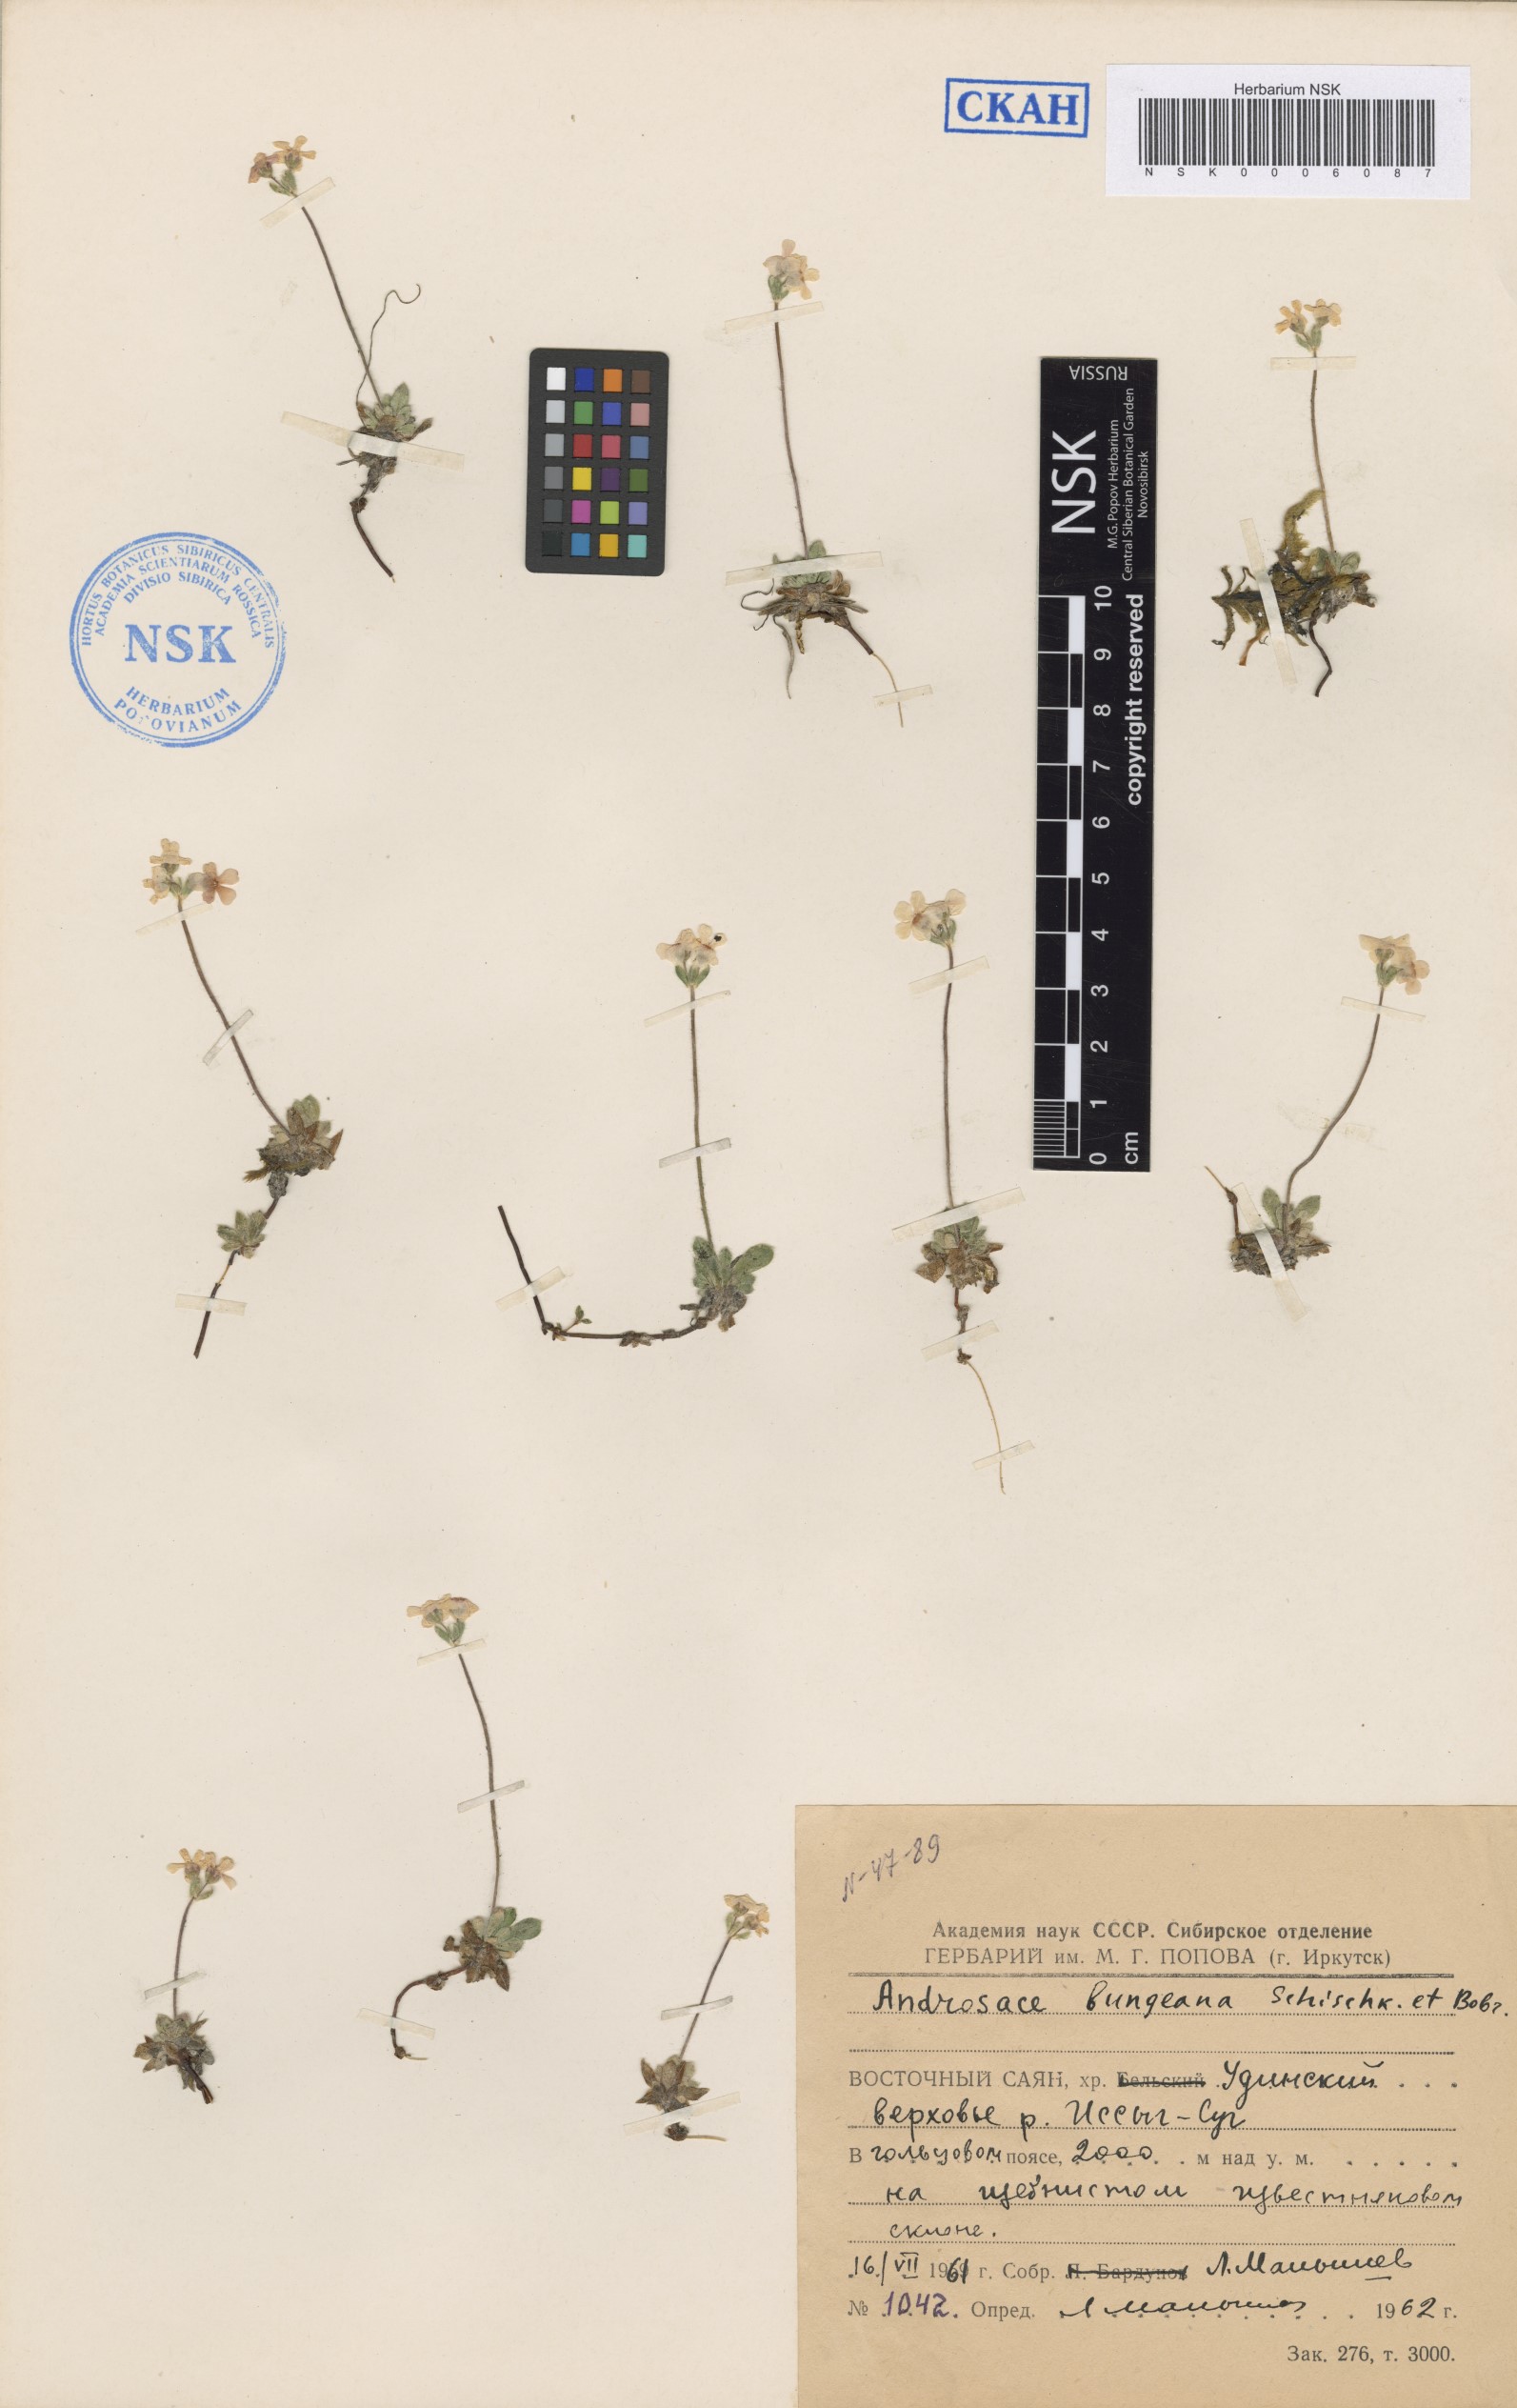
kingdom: Plantae
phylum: Tracheophyta
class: Magnoliopsida
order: Ericales
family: Primulaceae
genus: Androsace
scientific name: Androsace bungeana
